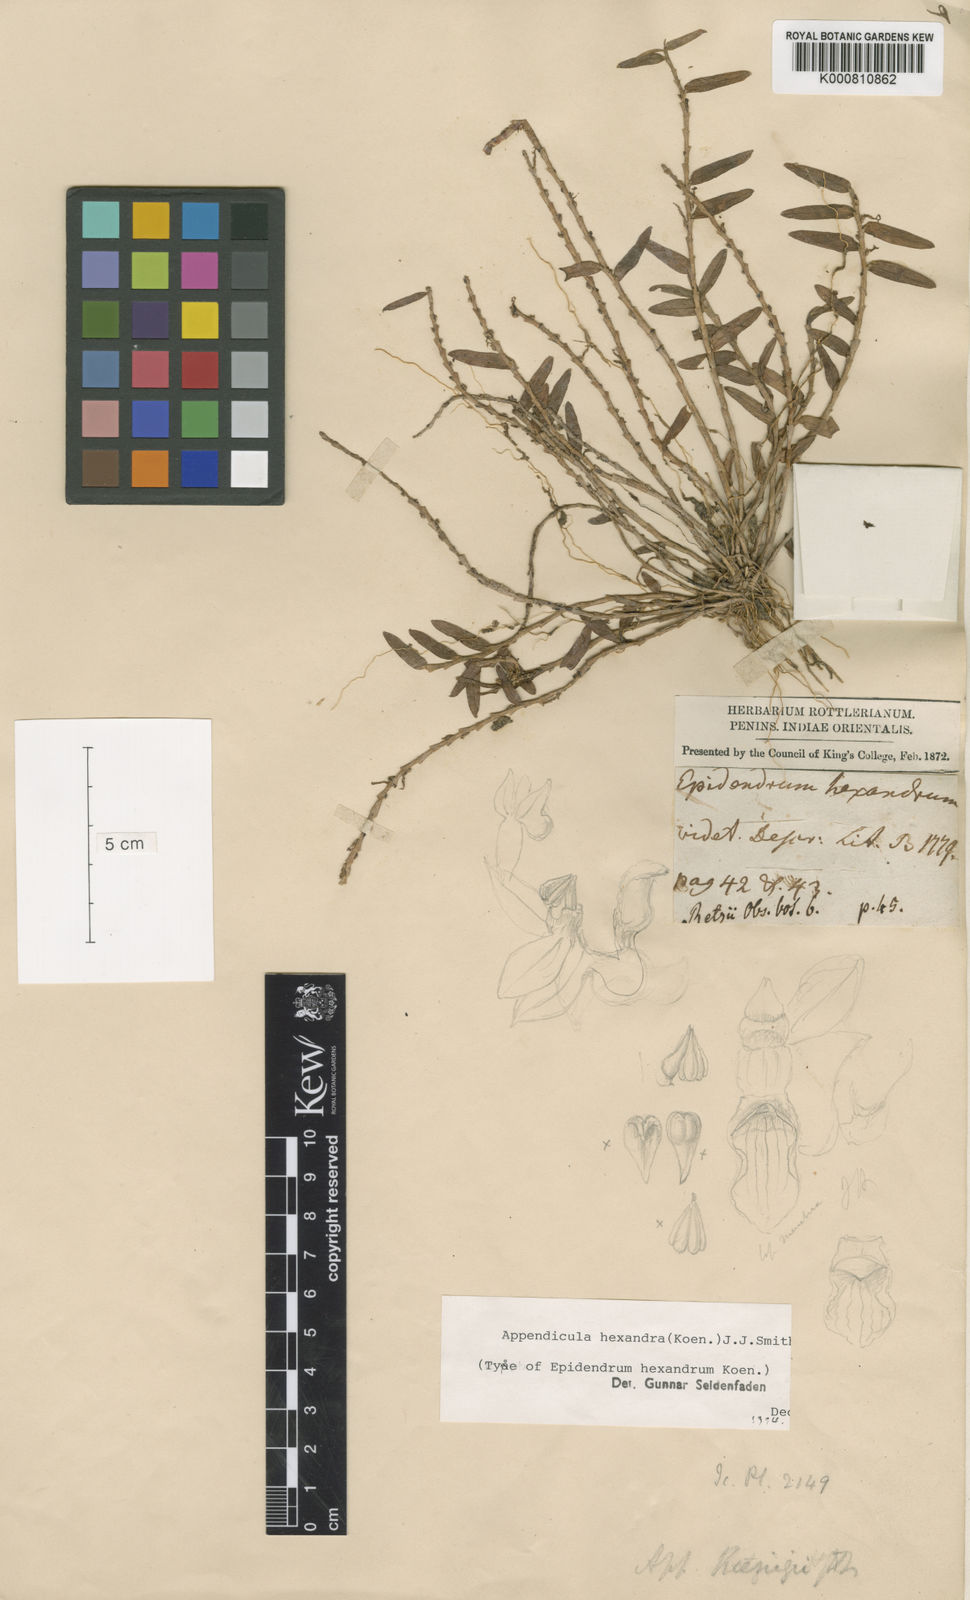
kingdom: Plantae
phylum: Tracheophyta
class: Liliopsida
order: Asparagales
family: Orchidaceae
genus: Appendicula
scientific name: Appendicula hexandra
